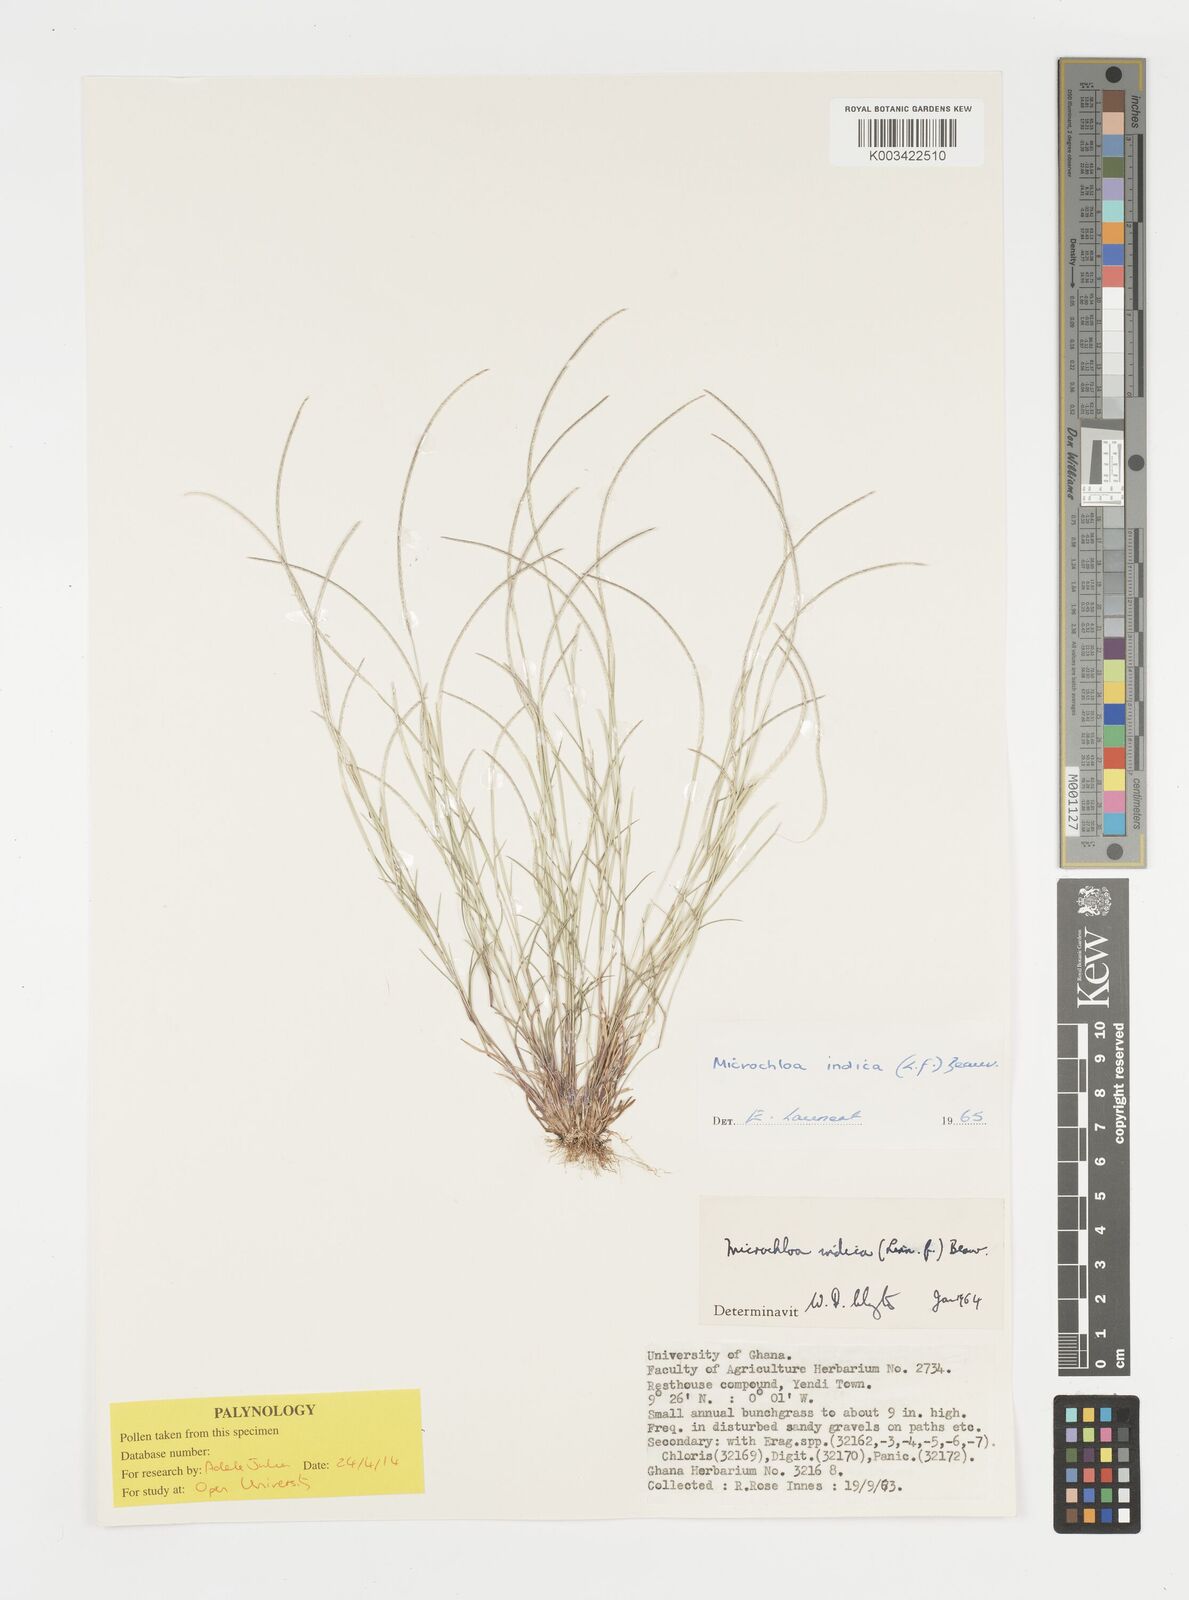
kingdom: Plantae
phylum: Tracheophyta
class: Liliopsida
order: Poales
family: Poaceae
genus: Microchloa
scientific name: Microchloa indica
